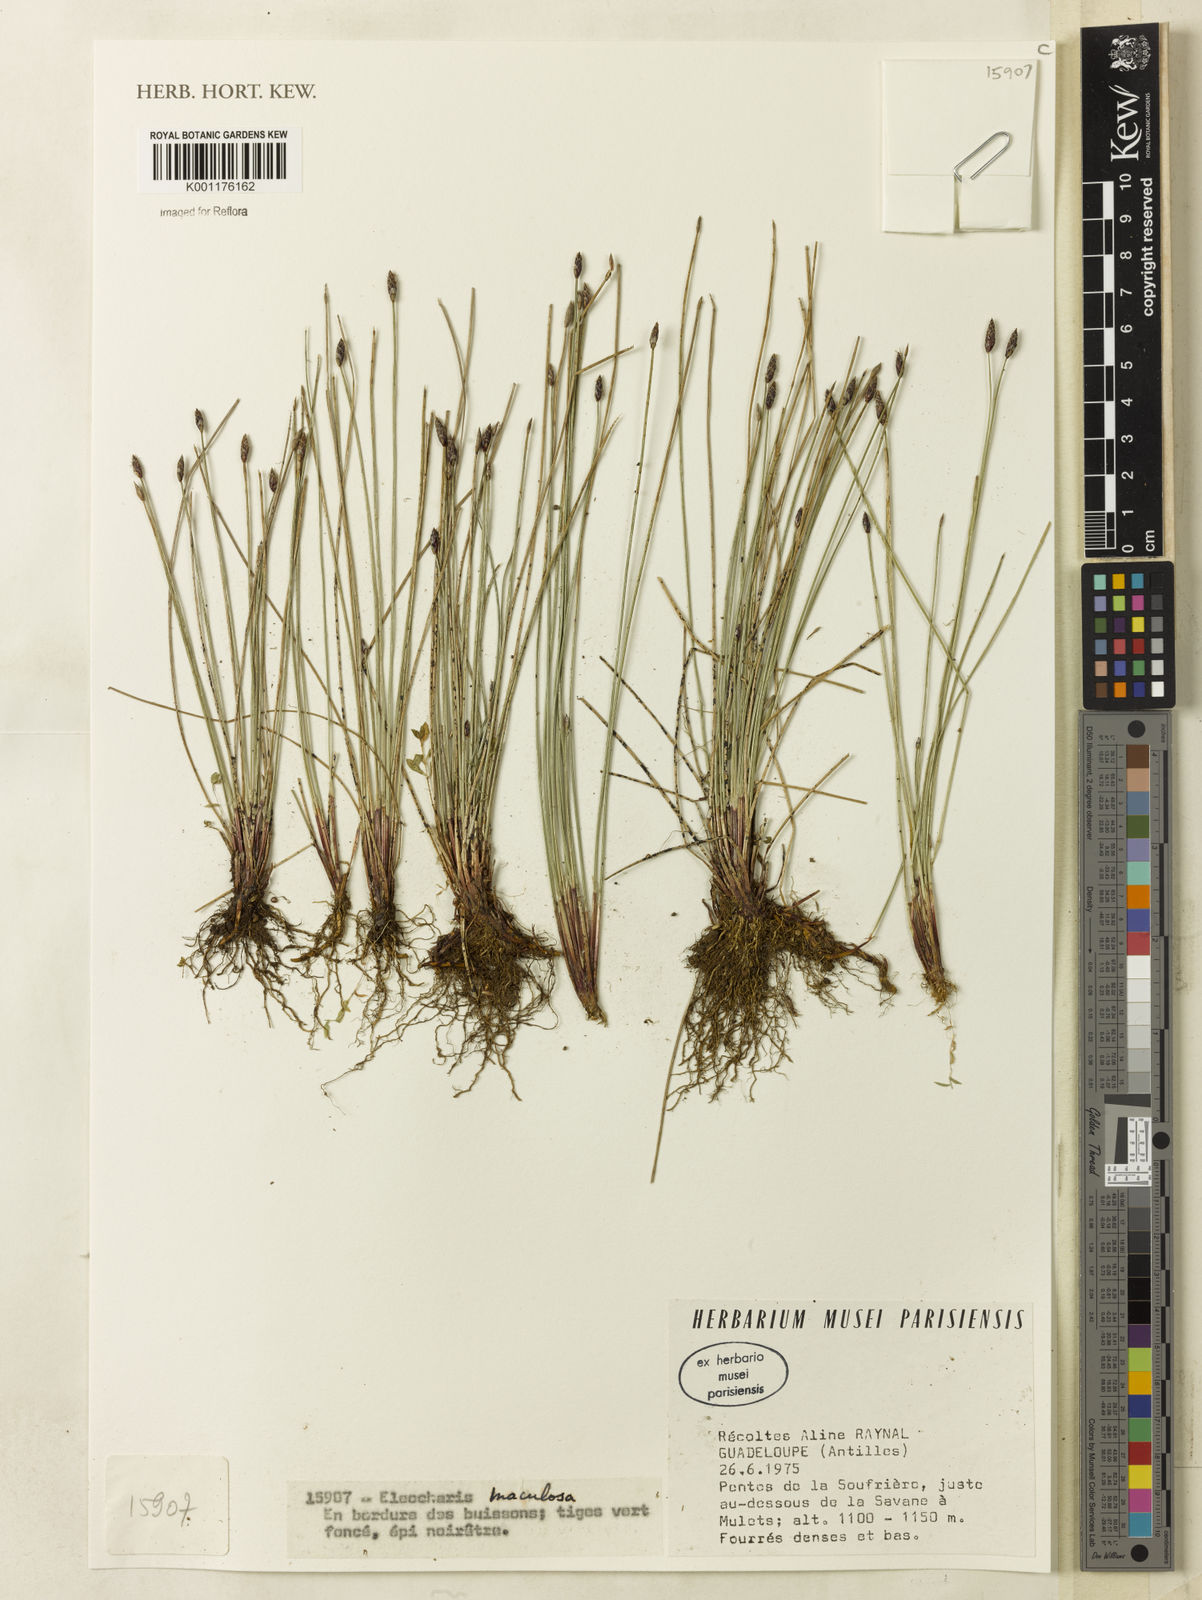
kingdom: Plantae
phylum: Tracheophyta
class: Liliopsida
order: Poales
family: Cyperaceae
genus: Eleocharis
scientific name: Eleocharis maculosa
